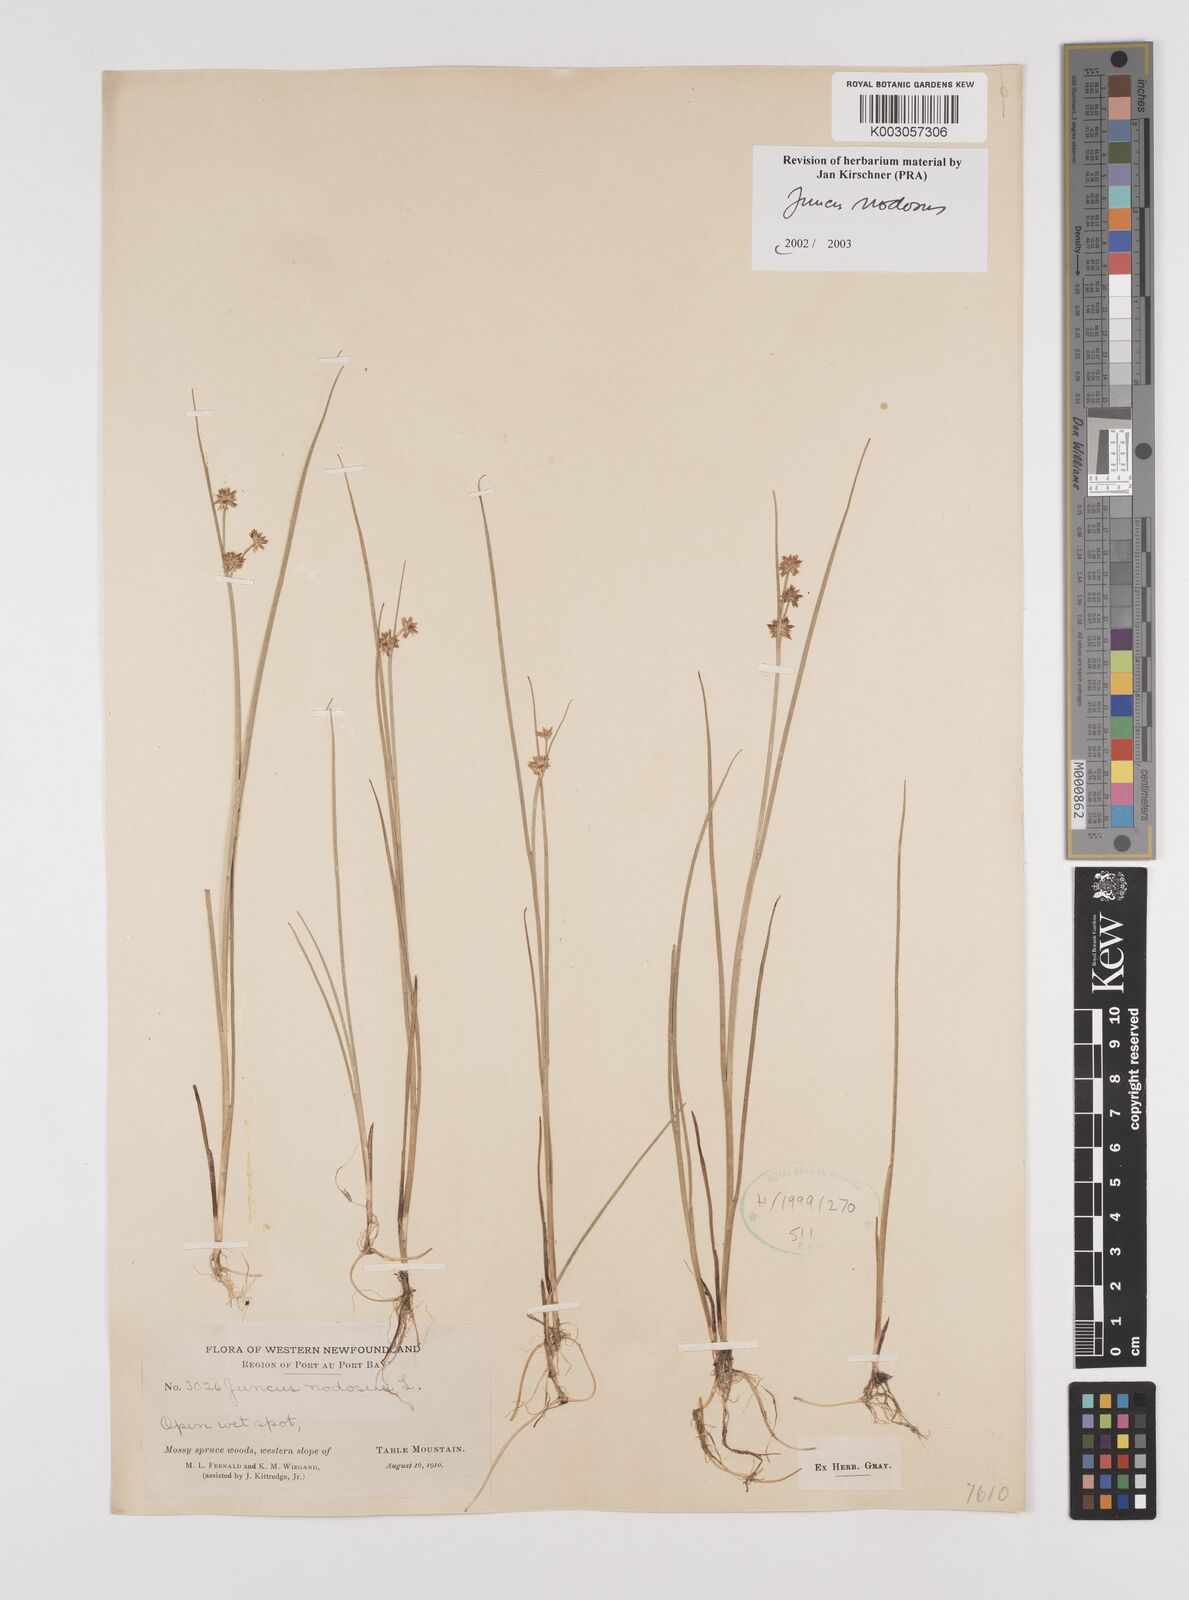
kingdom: Plantae
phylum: Tracheophyta
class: Liliopsida
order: Poales
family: Juncaceae
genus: Juncus
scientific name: Juncus nodosus
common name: Knotted rush
